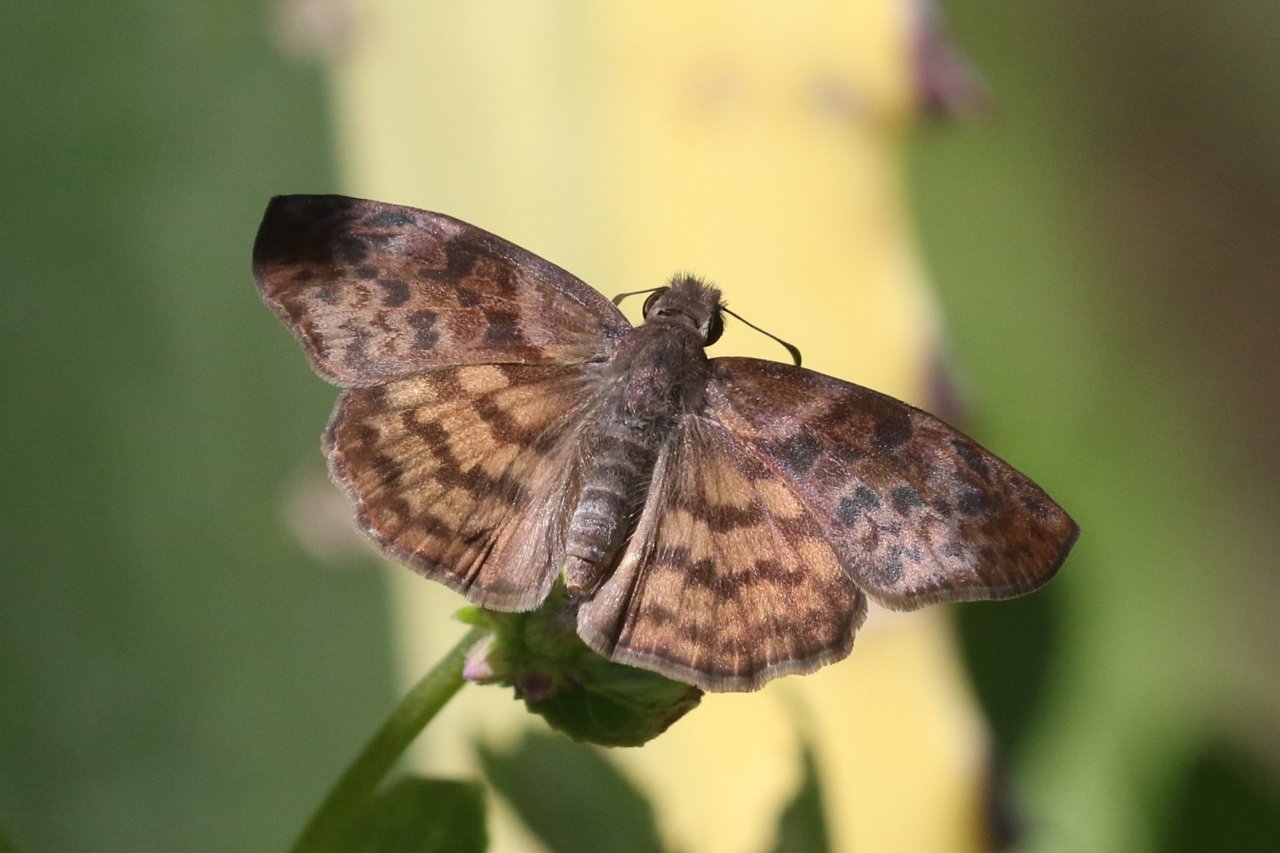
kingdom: Animalia
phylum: Arthropoda
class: Insecta
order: Lepidoptera
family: Hesperiidae
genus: Timochares
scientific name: Timochares ruptifasciata
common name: Brown-banded Skipper
